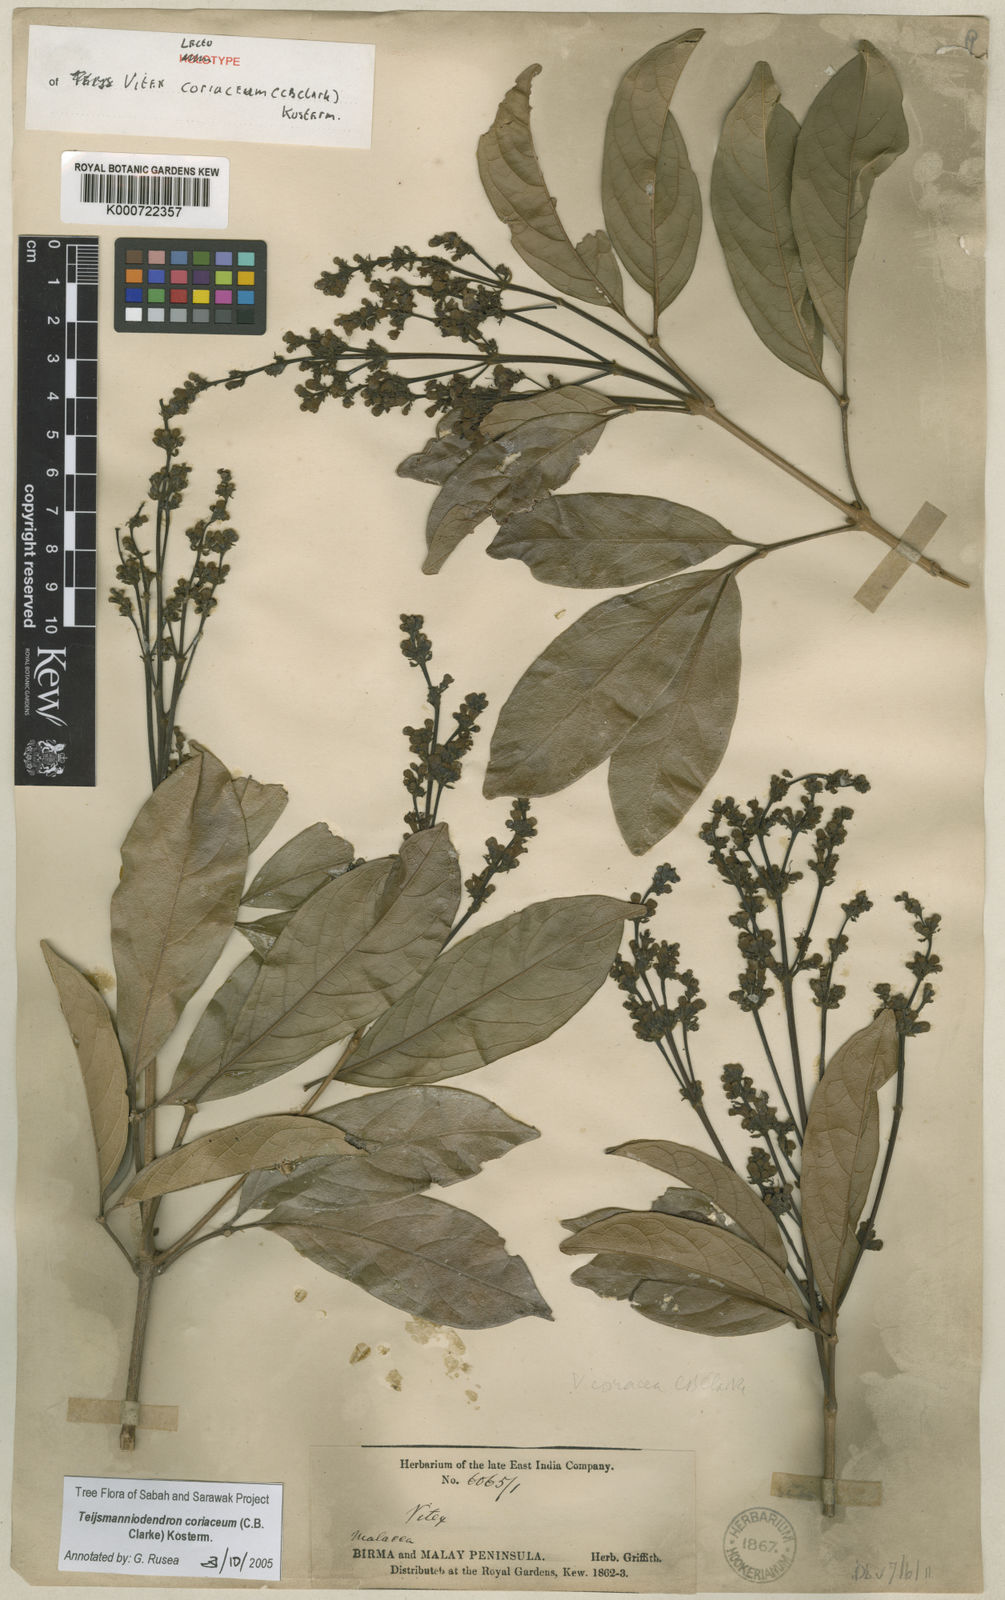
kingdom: Plantae
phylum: Tracheophyta
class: Magnoliopsida
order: Lamiales
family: Lamiaceae
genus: Teijsmanniodendron
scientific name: Teijsmanniodendron coriaceum
